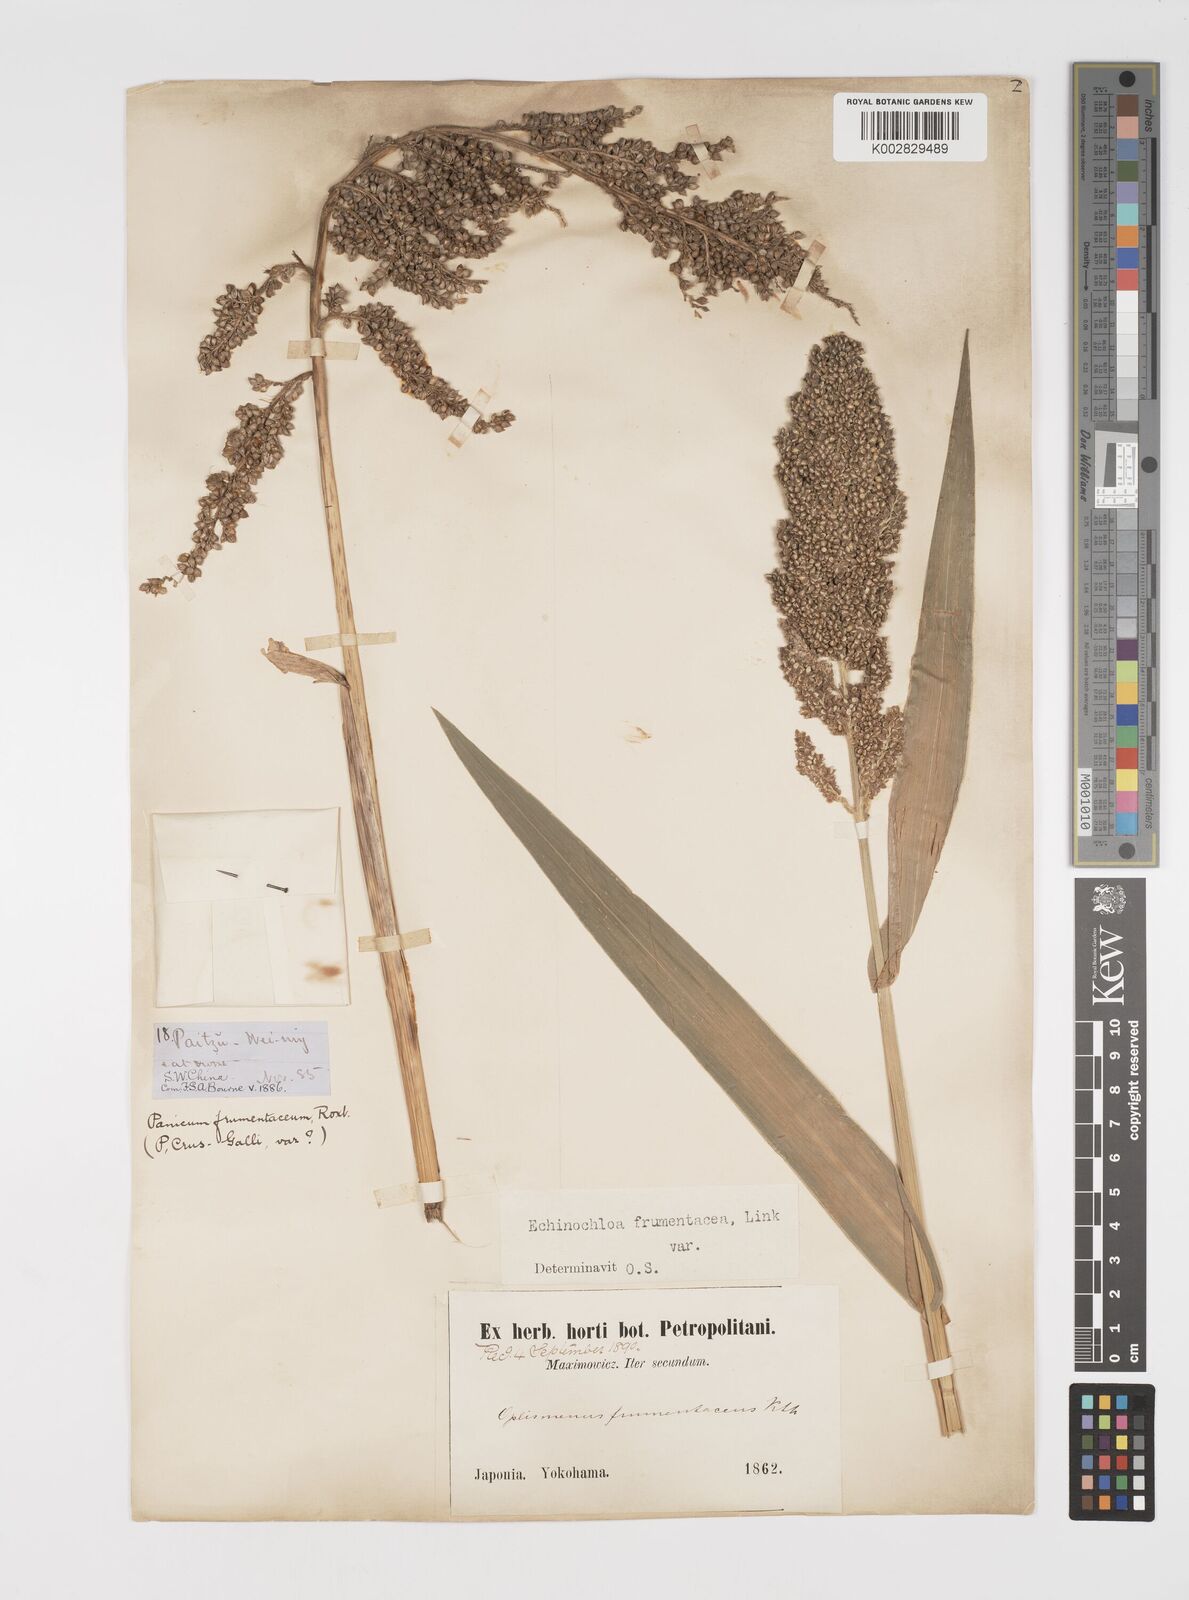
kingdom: Plantae
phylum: Tracheophyta
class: Liliopsida
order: Poales
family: Poaceae
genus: Echinochloa
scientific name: Echinochloa crus-galli
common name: Cockspur
